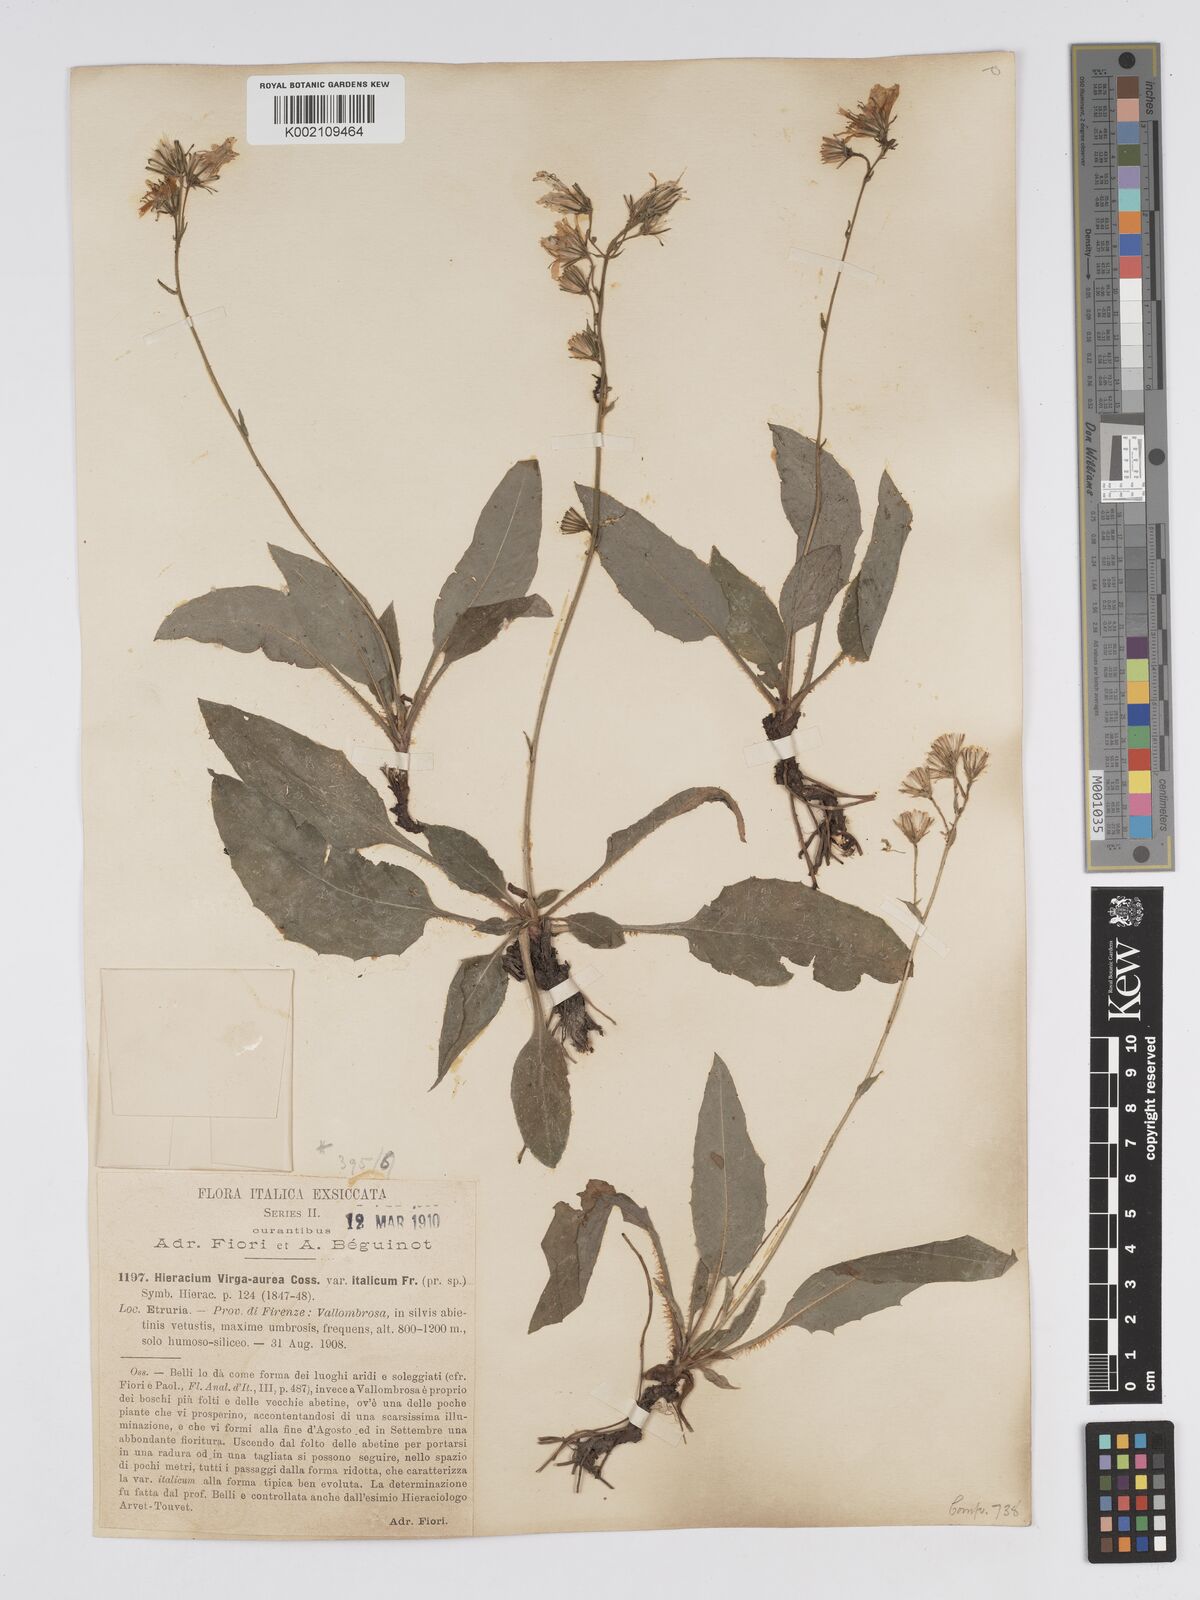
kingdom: Plantae
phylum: Tracheophyta
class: Magnoliopsida
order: Asterales
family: Asteraceae
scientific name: Asteraceae
